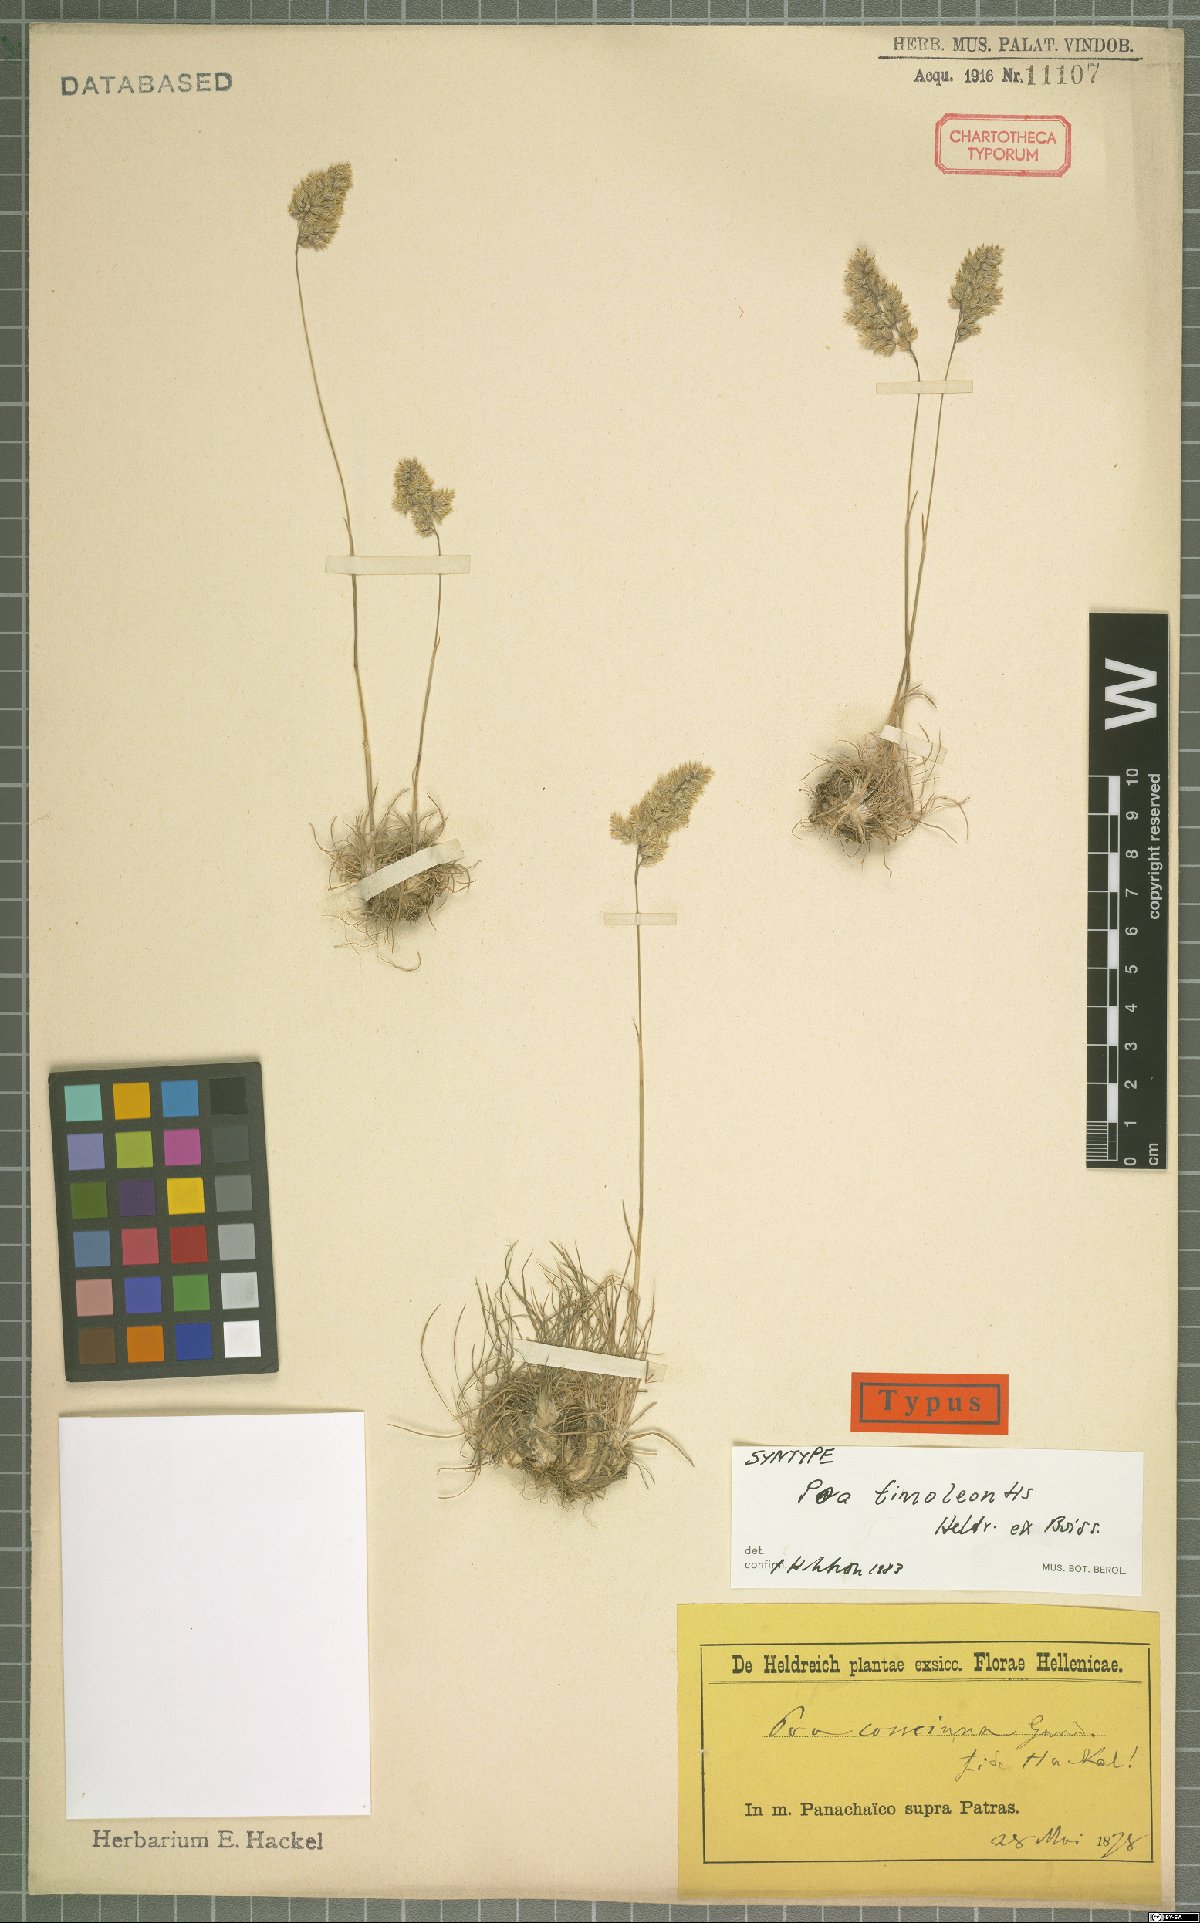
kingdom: Plantae
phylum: Tracheophyta
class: Liliopsida
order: Poales
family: Poaceae
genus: Poa
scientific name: Poa timoleontis
